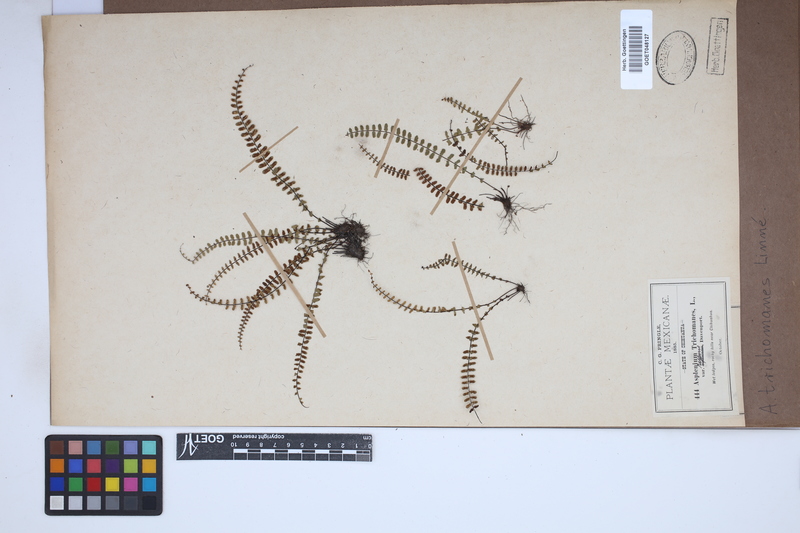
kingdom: Plantae
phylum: Tracheophyta
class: Polypodiopsida
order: Polypodiales
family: Aspleniaceae
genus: Asplenium
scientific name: Asplenium trichomanes
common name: Maidenhair spleenwort
